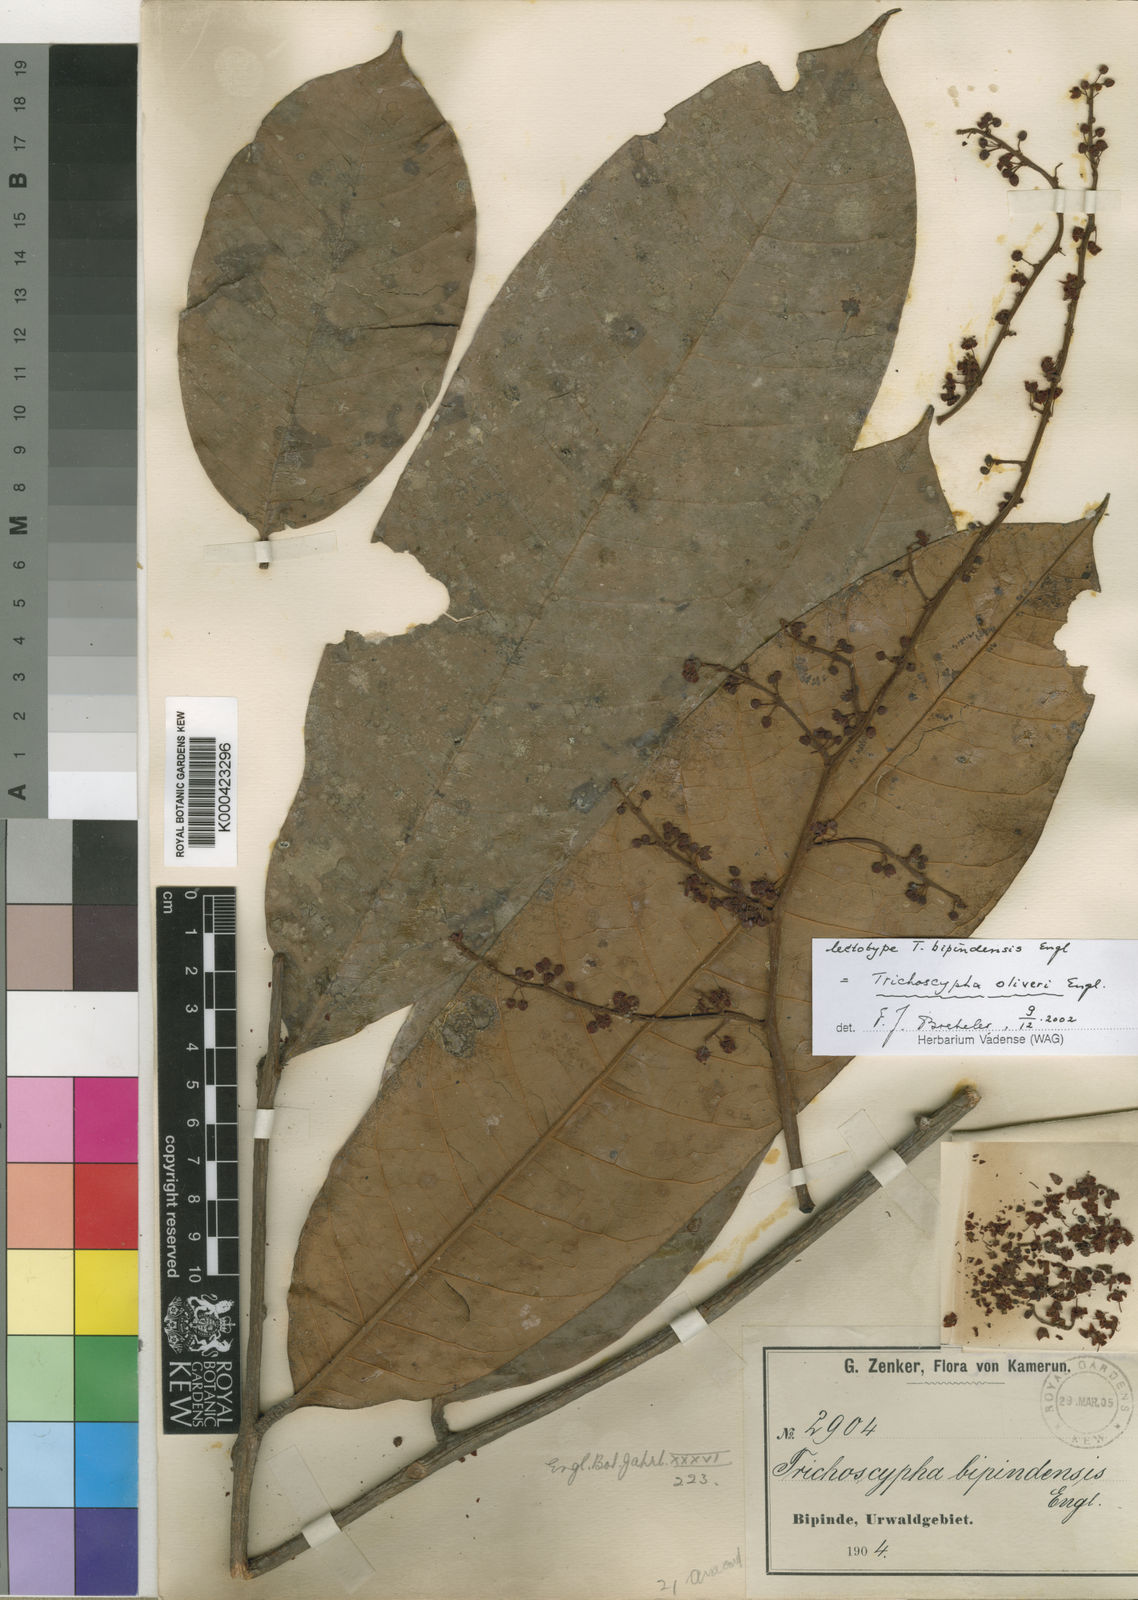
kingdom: Plantae
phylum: Tracheophyta
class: Magnoliopsida
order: Sapindales
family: Anacardiaceae
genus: Trichoscypha
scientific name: Trichoscypha oliveri
